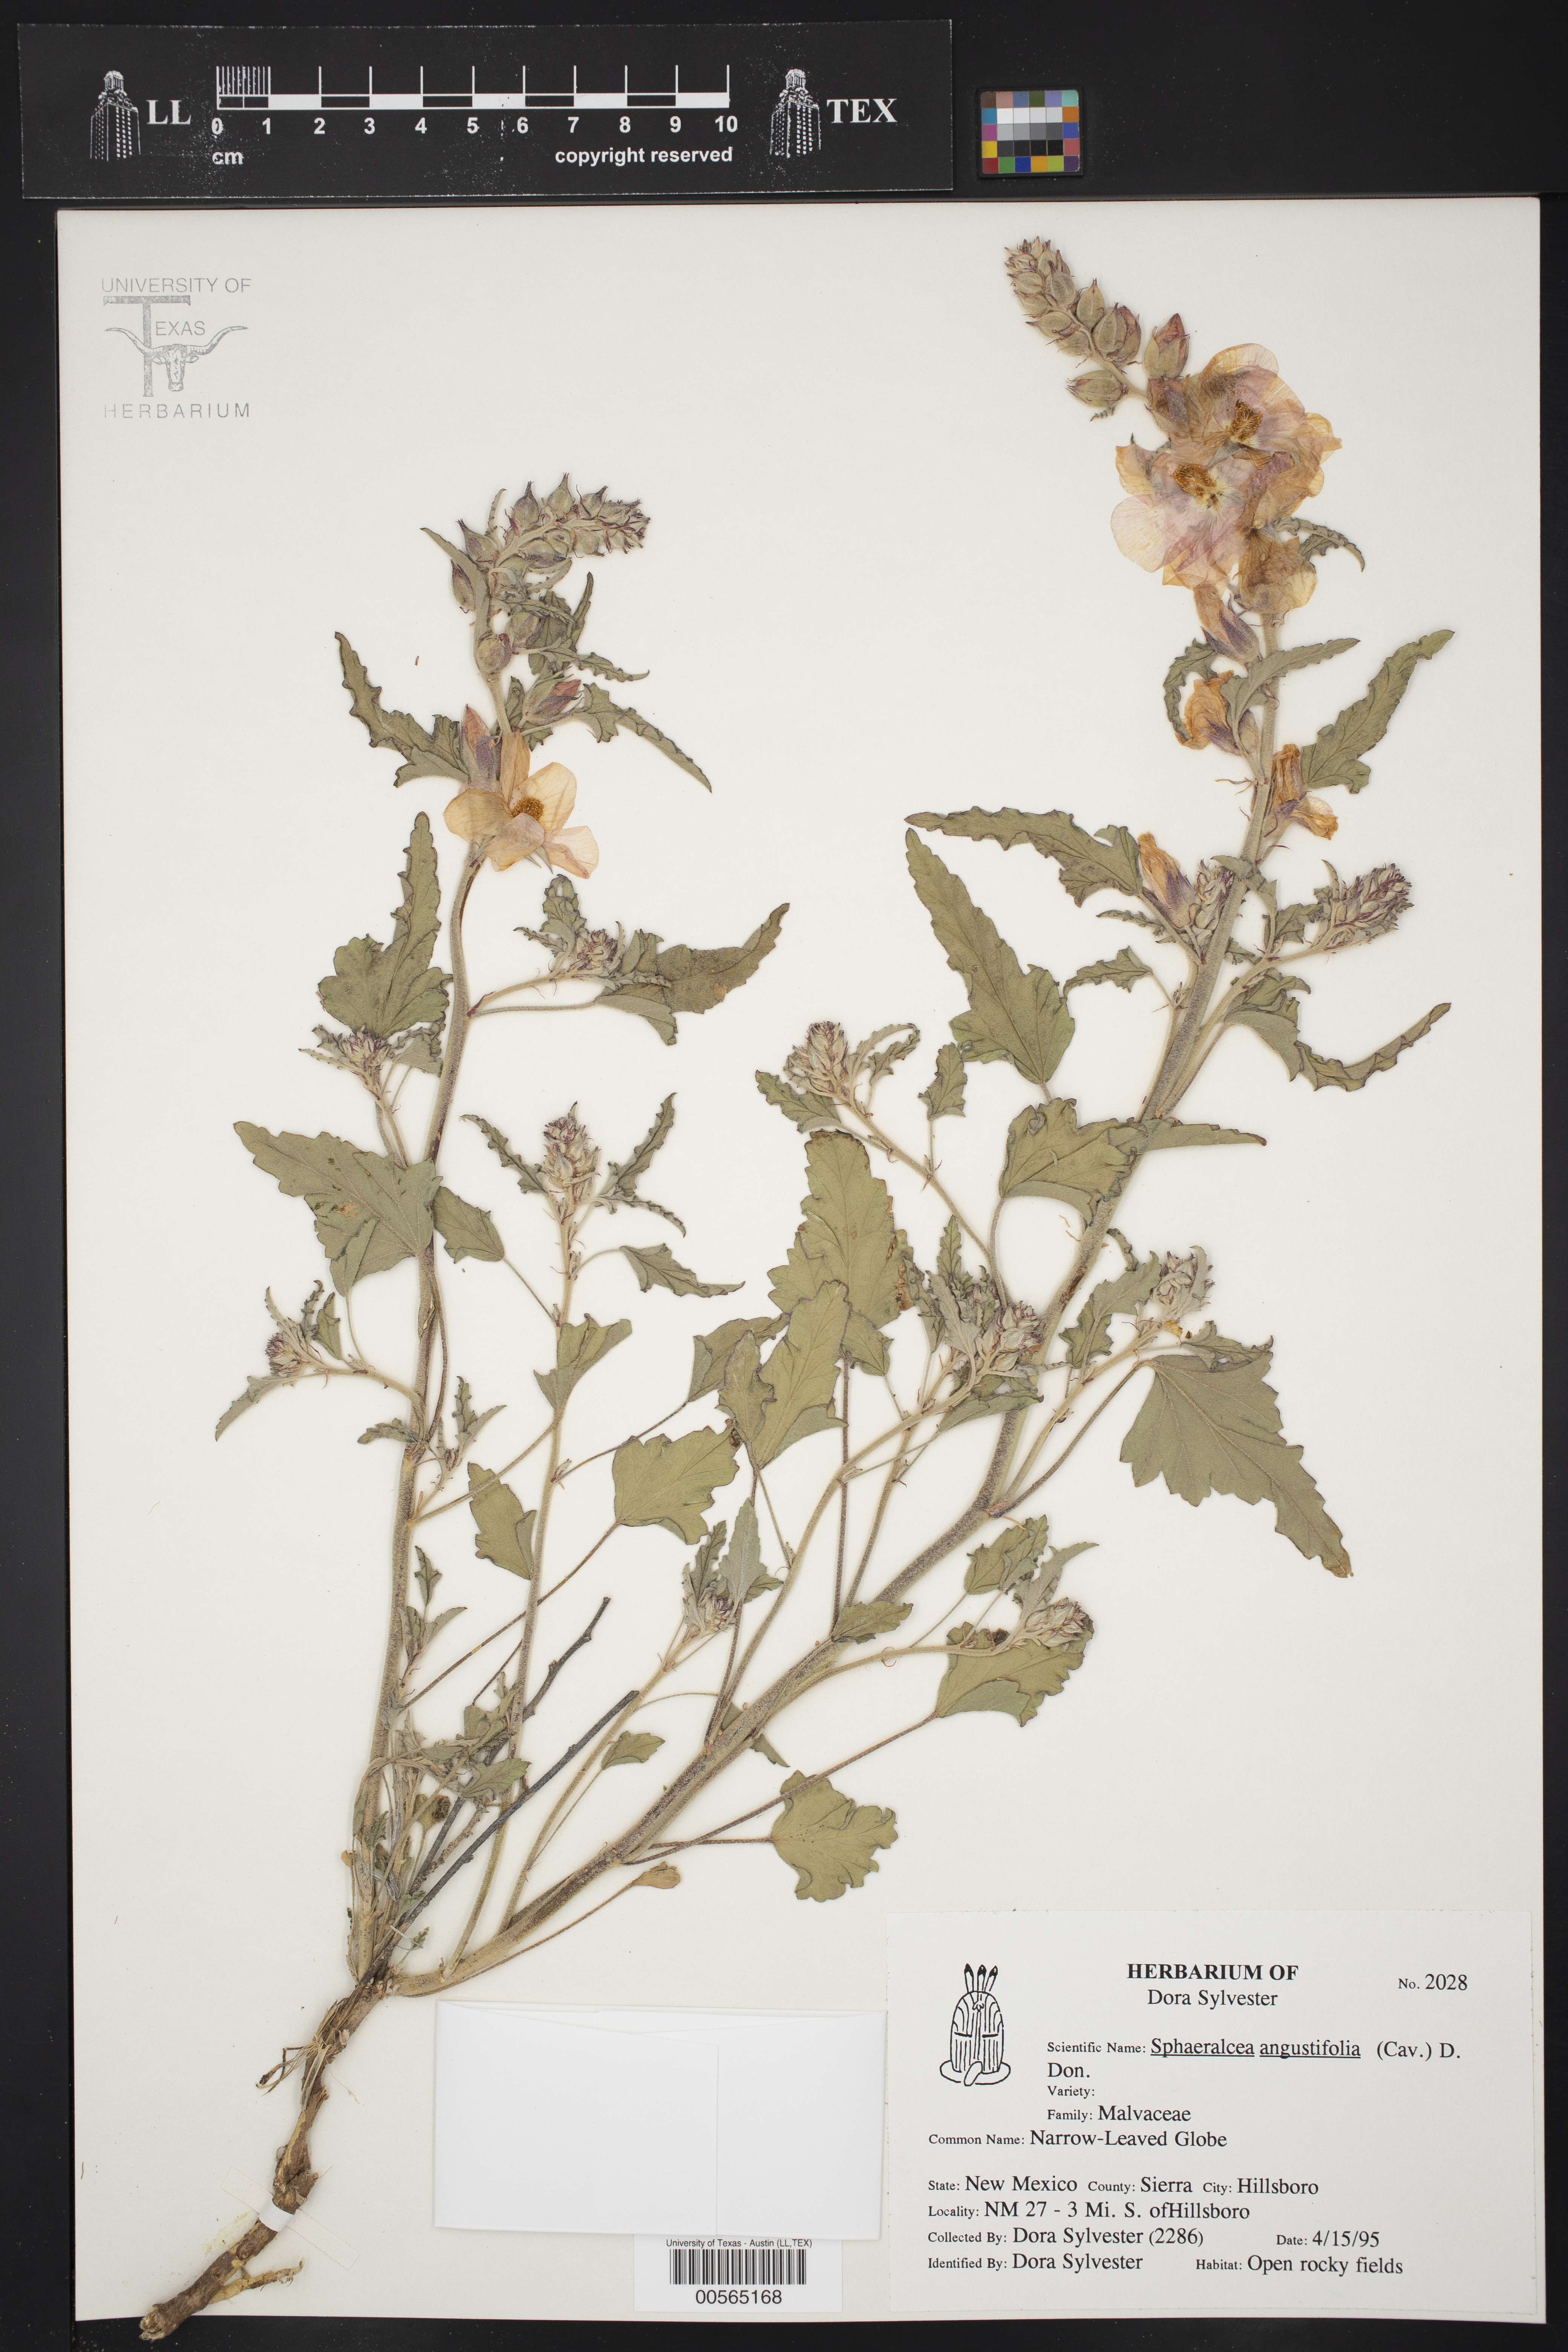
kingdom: Plantae
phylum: Tracheophyta
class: Magnoliopsida
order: Malvales
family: Malvaceae
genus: Sphaeralcea
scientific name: Sphaeralcea angustifolia
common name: Copper globe-mallow
